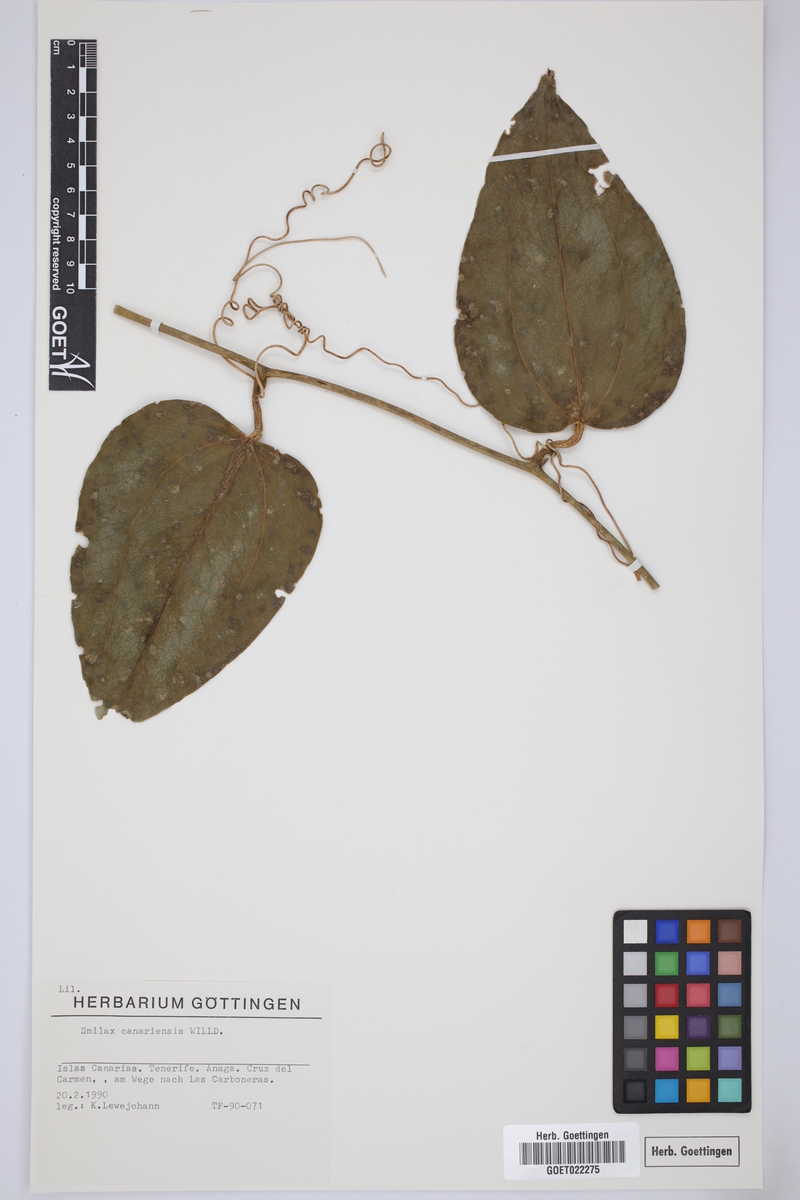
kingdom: Plantae
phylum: Tracheophyta
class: Liliopsida
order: Liliales
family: Smilacaceae
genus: Smilax
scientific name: Smilax canariensis
